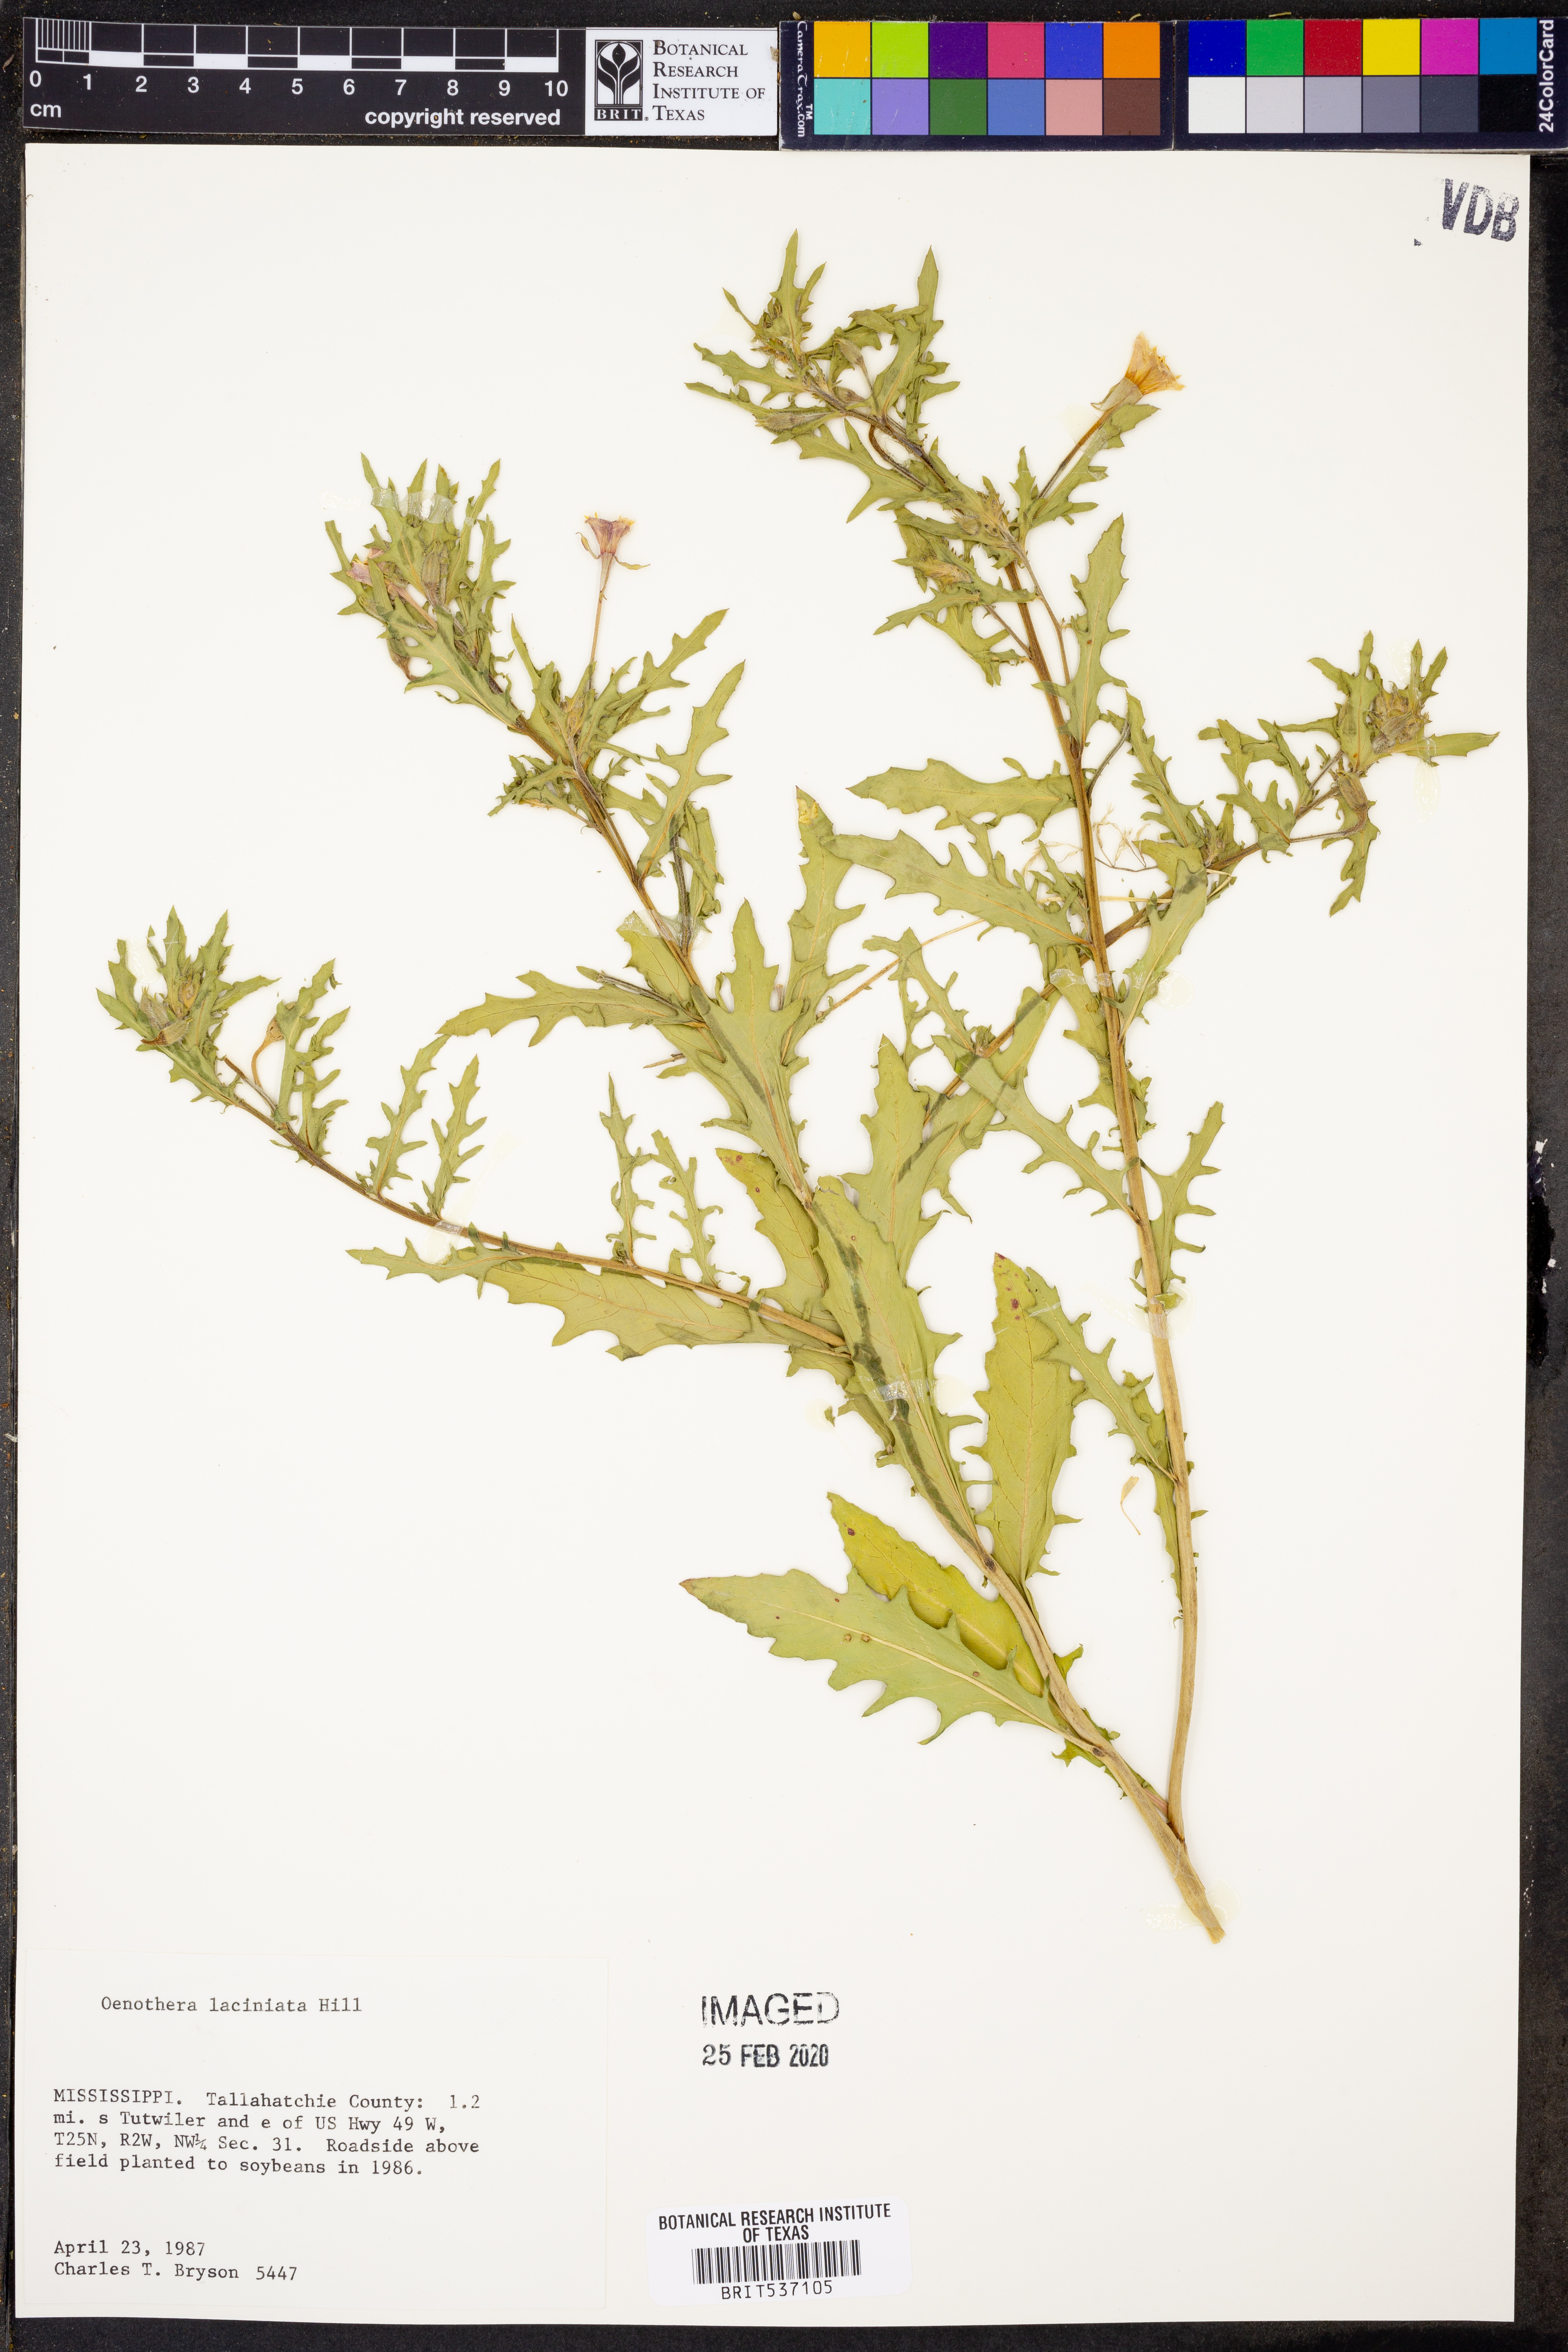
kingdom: Plantae
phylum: Tracheophyta
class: Magnoliopsida
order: Myrtales
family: Onagraceae
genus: Oenothera
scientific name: Oenothera laciniata
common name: Cut-leaved evening-primrose
